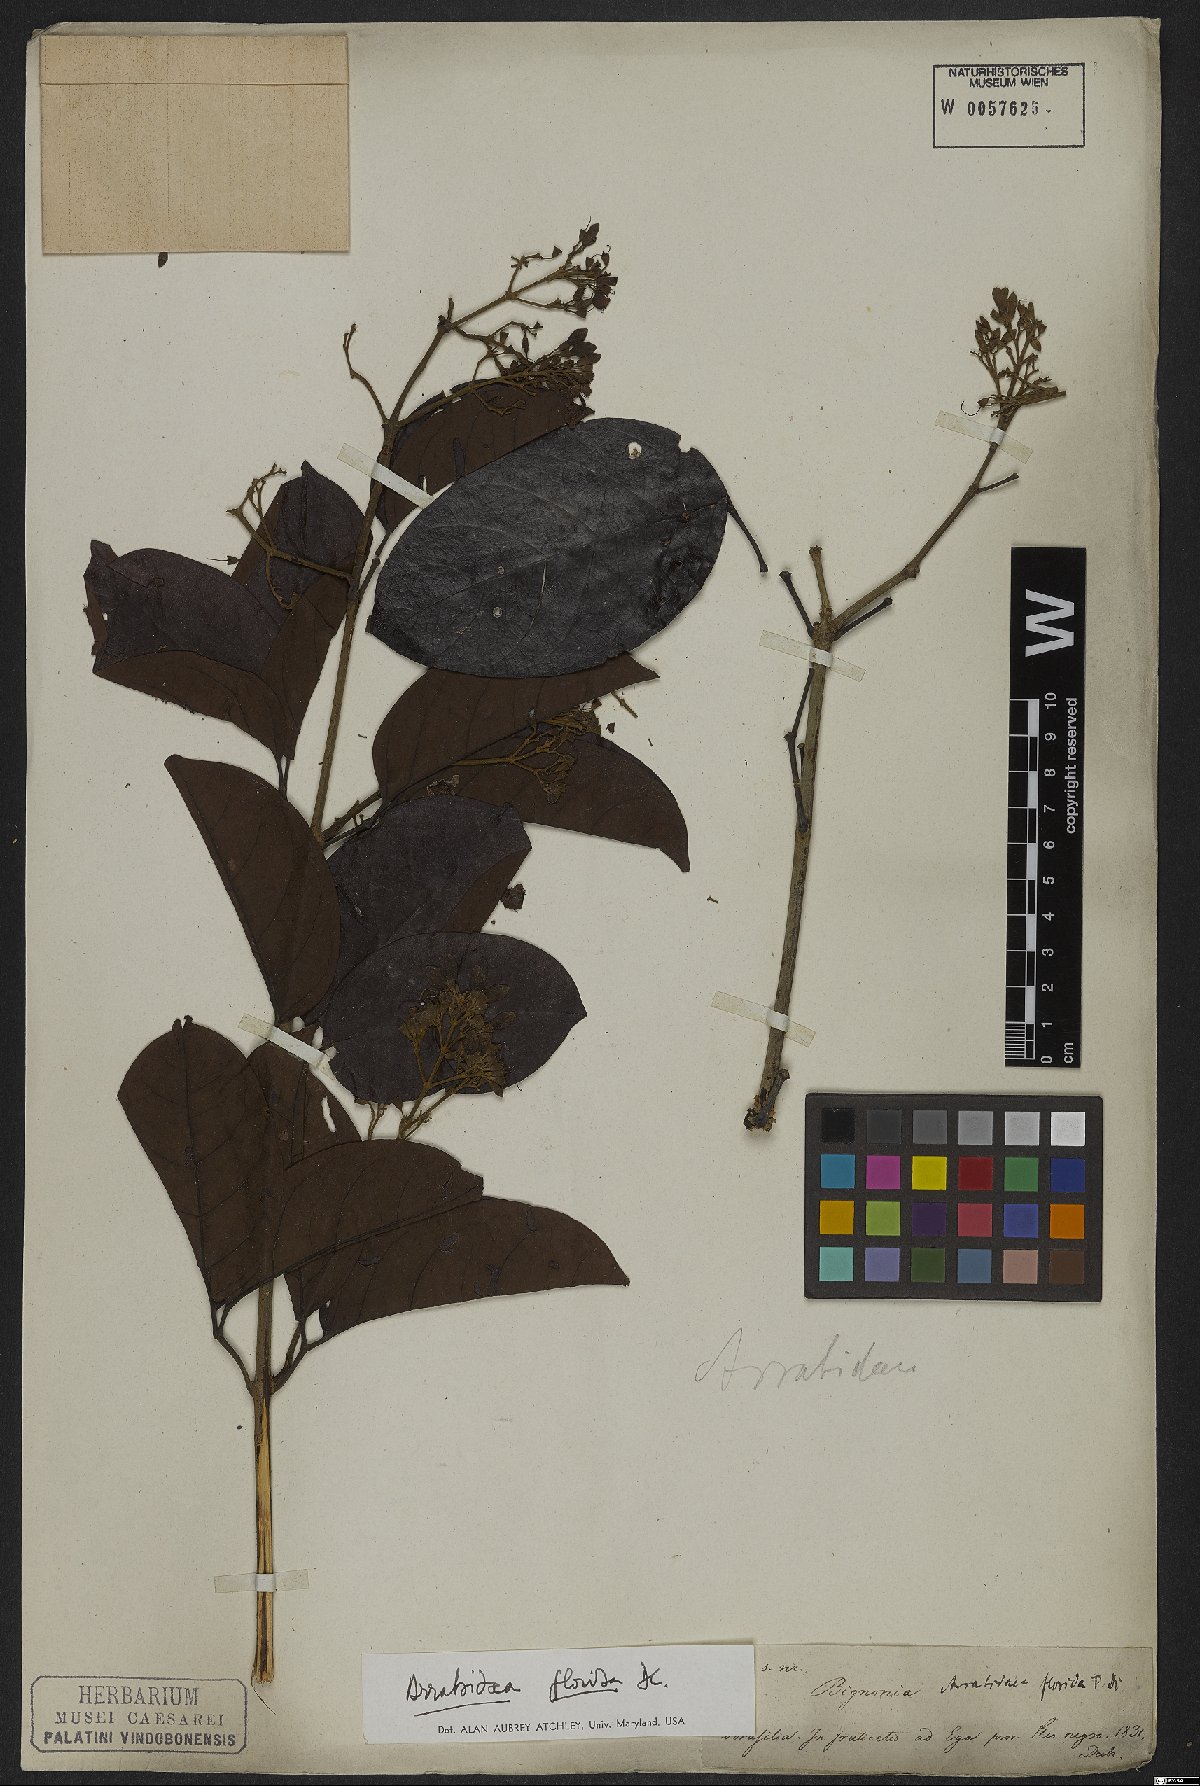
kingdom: Plantae
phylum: Tracheophyta
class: Magnoliopsida
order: Lamiales
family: Bignoniaceae
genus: Fridericia
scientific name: Fridericia florida
